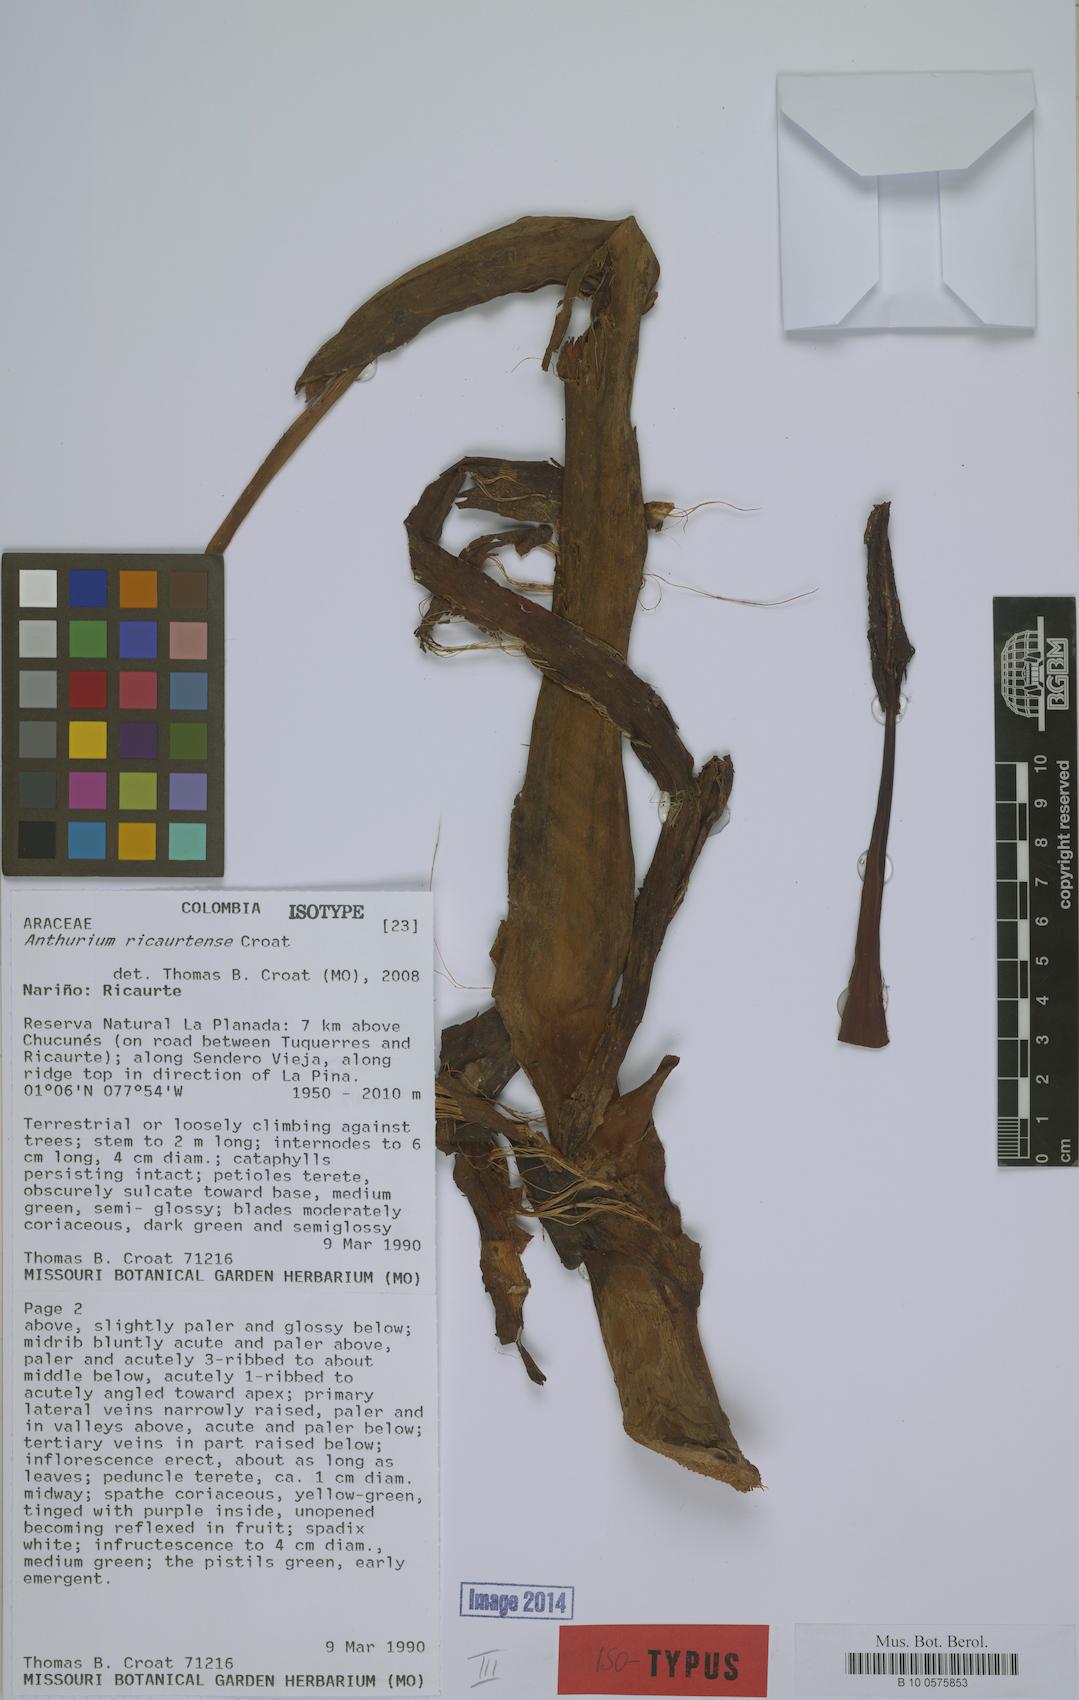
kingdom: Plantae
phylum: Tracheophyta
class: Liliopsida
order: Alismatales
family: Araceae
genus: Anthurium
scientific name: Anthurium ricaurtense
